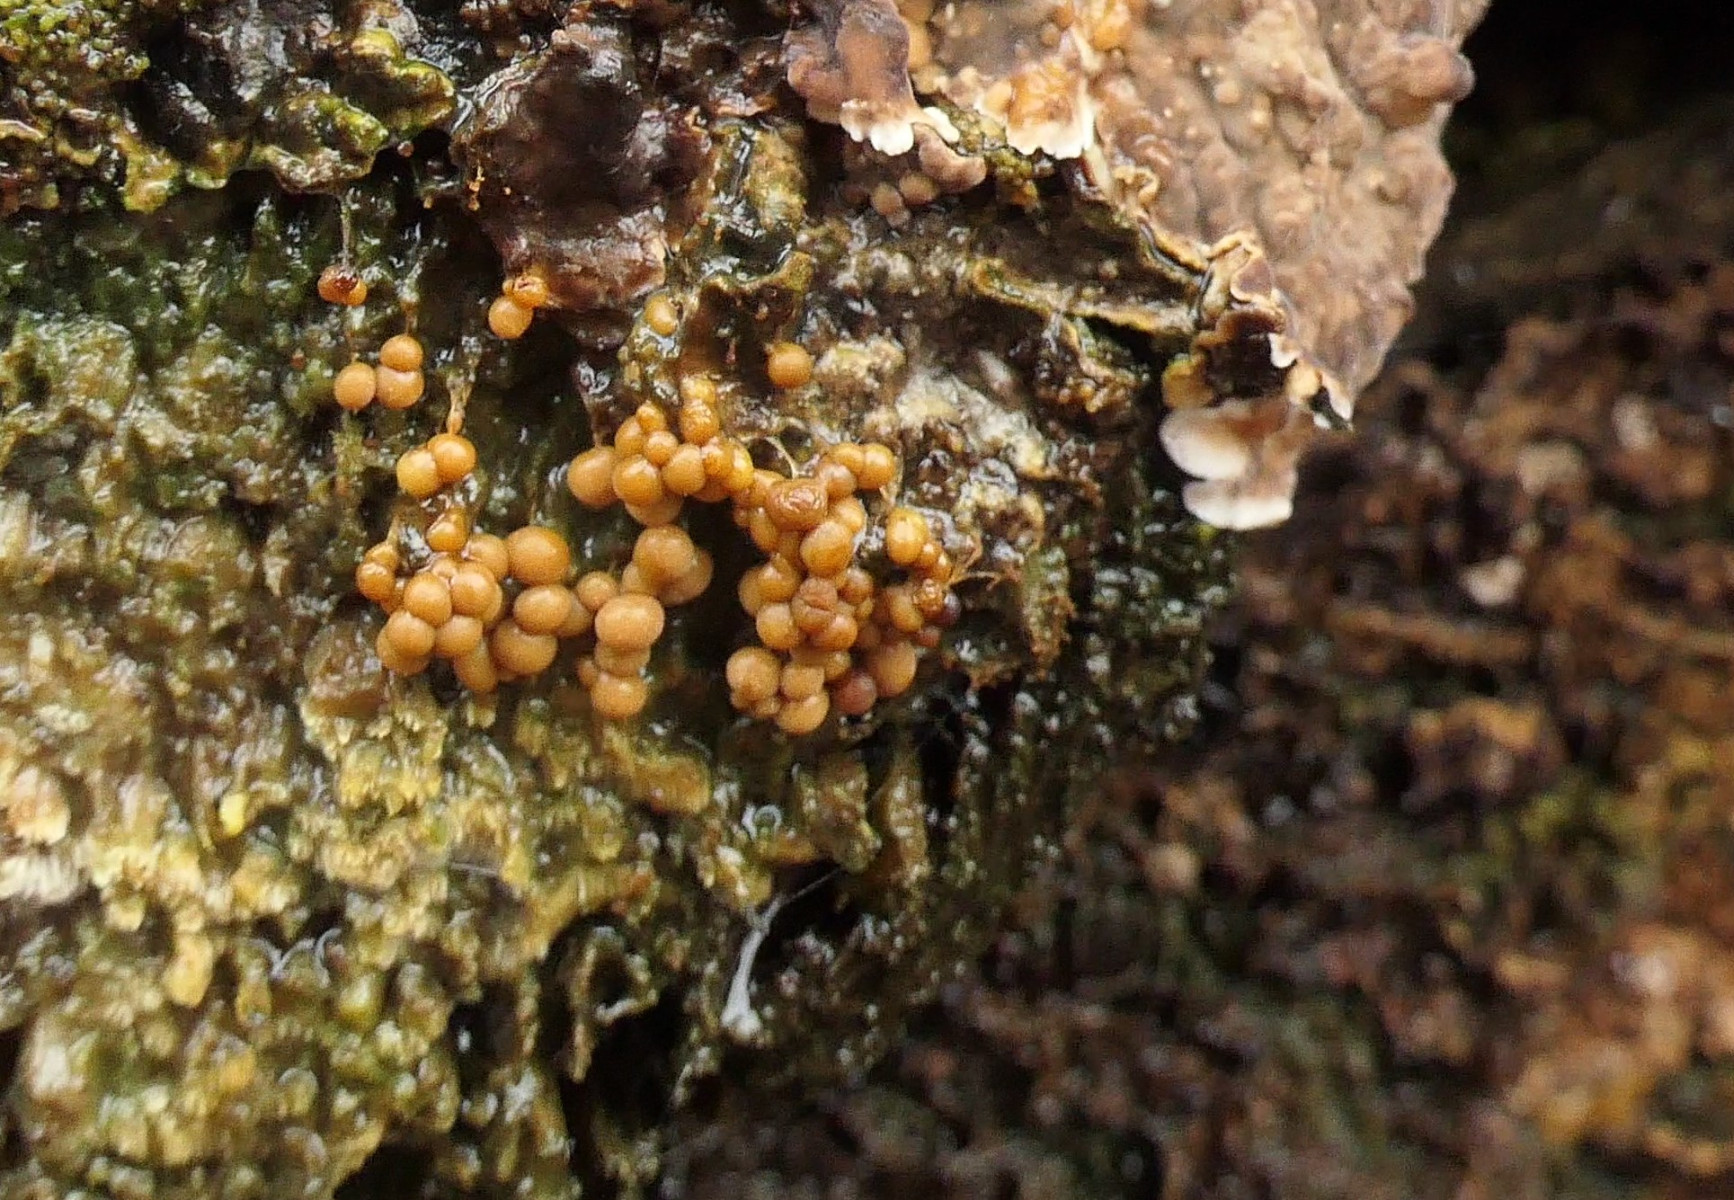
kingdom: Protozoa
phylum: Mycetozoa
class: Myxomycetes
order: Physarales
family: Physaraceae
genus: Badhamia
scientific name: Badhamia utricularis
